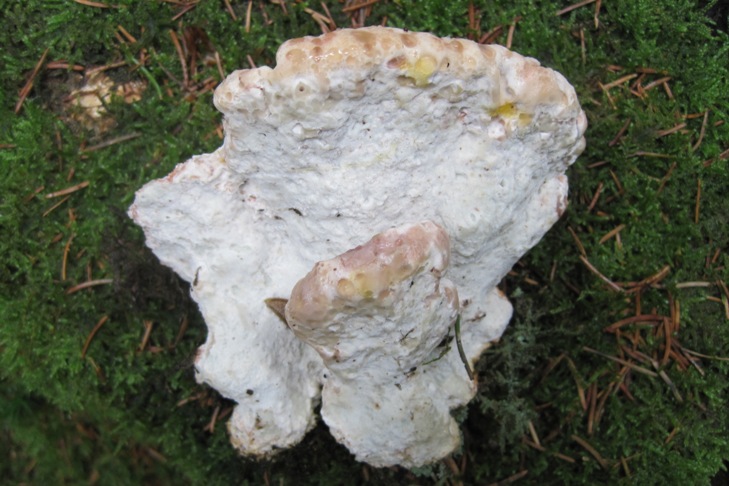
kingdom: Fungi
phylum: Basidiomycota
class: Agaricomycetes
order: Polyporales
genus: Calcipostia
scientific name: Calcipostia guttulata
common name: dråbe-kødporesvamp
